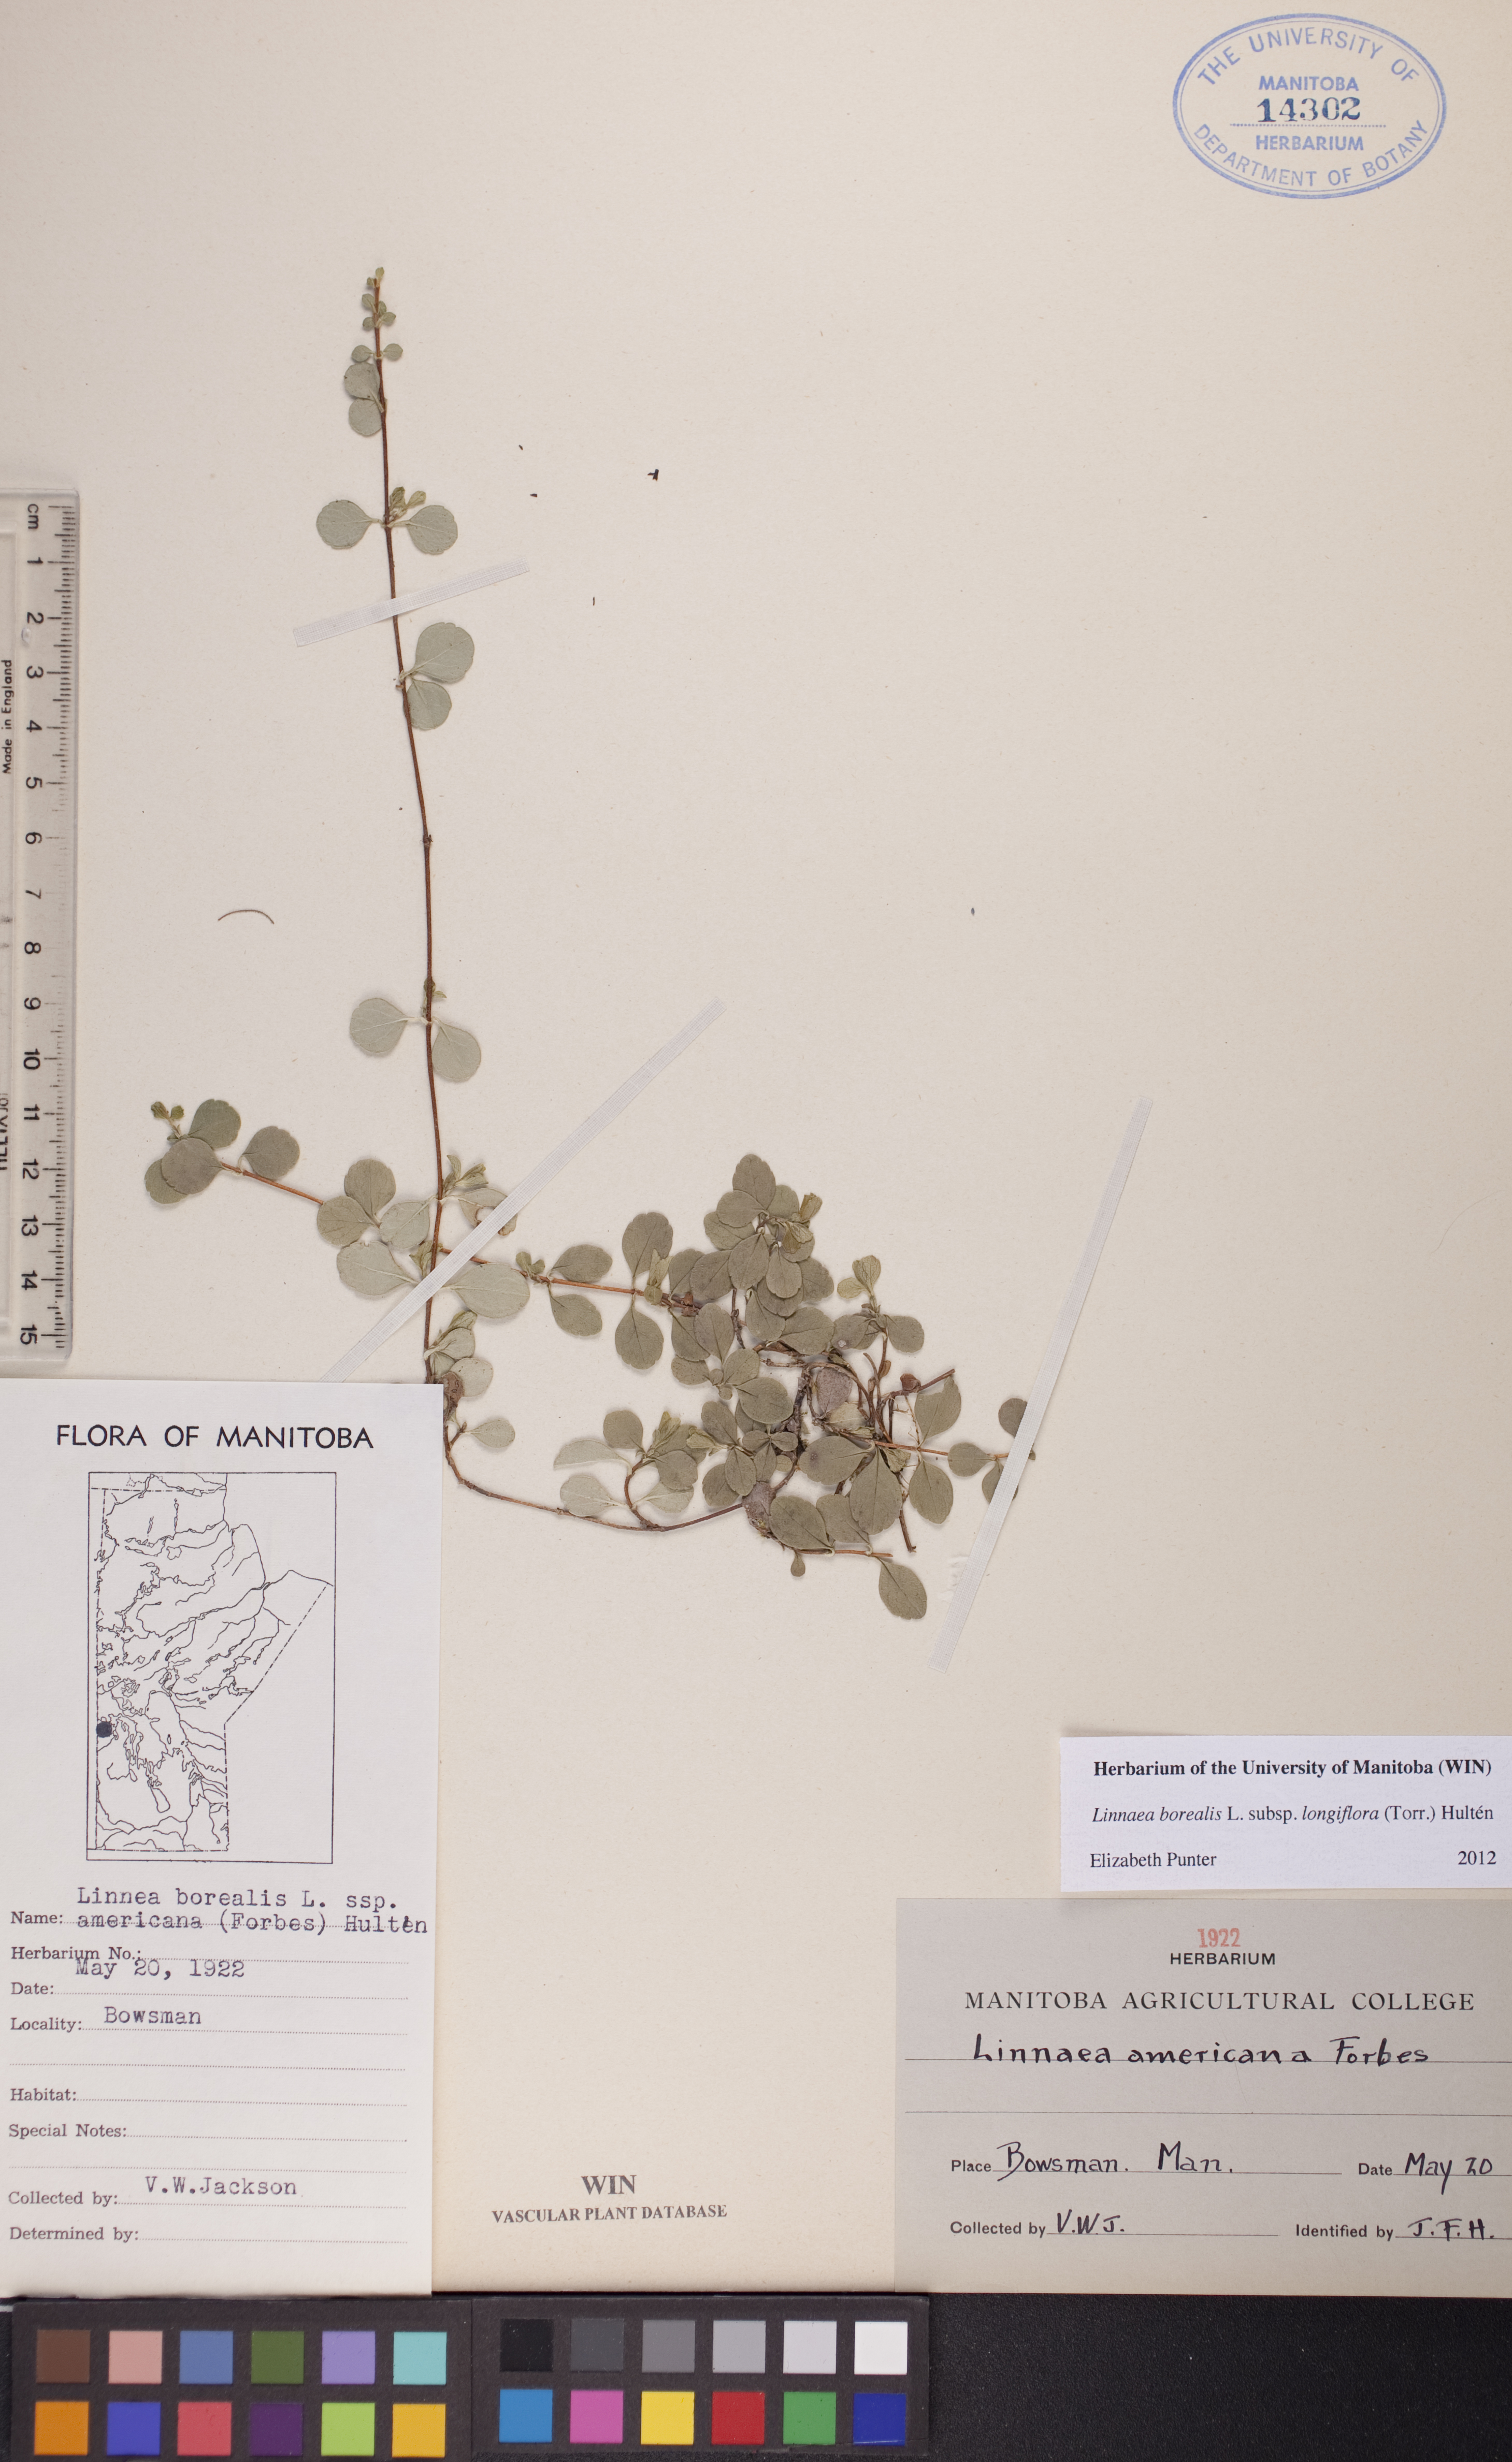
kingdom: Plantae
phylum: Tracheophyta
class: Magnoliopsida
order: Dipsacales
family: Caprifoliaceae
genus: Linnaea
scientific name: Linnaea borealis
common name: Twinflower
